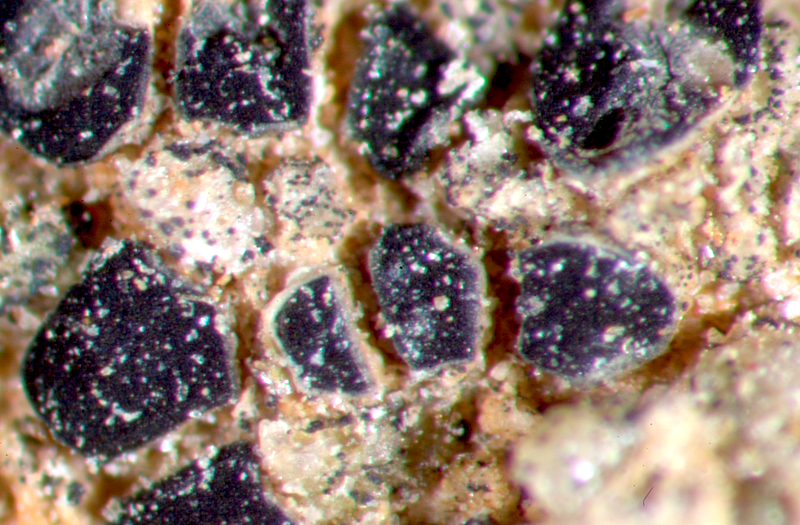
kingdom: Fungi
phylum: Ascomycota
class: Lecanoromycetes
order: Caliciales
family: Caliciaceae
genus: Buellia
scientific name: Buellia
